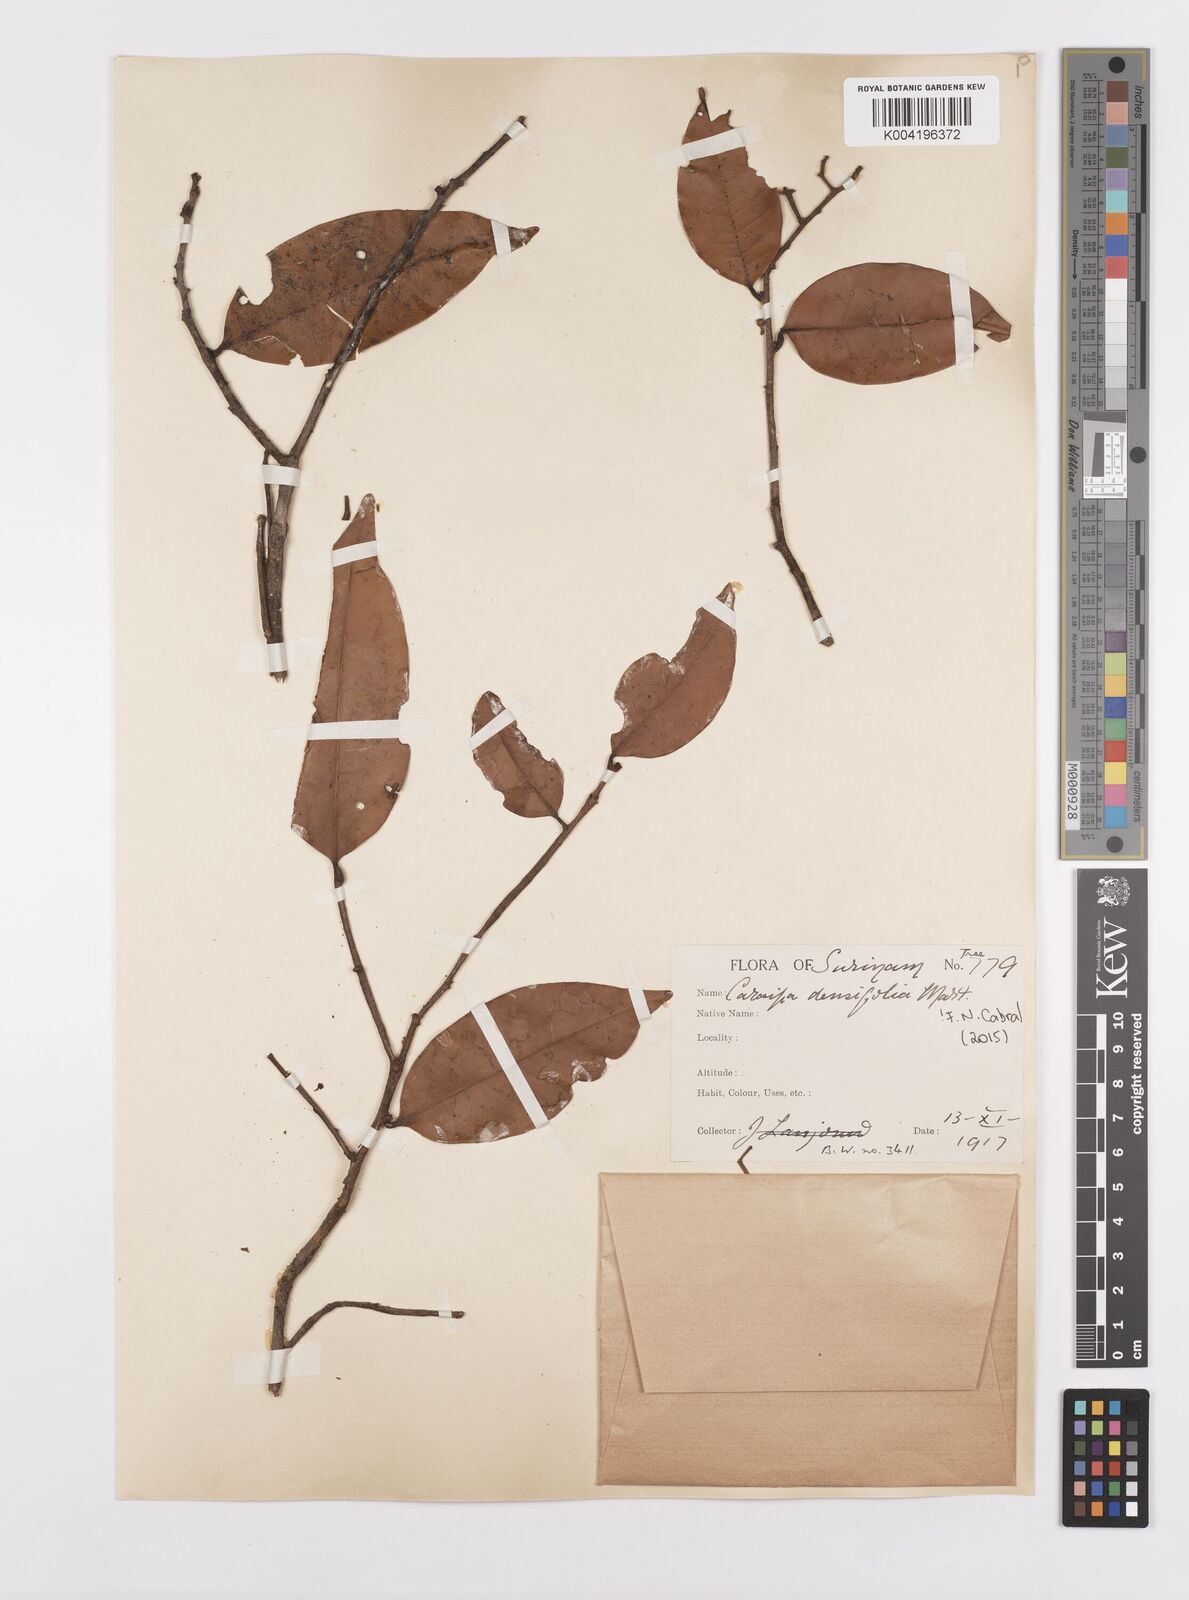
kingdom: Plantae
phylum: Tracheophyta
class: Magnoliopsida
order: Malpighiales
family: Calophyllaceae
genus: Caraipa
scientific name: Caraipa densifolia
